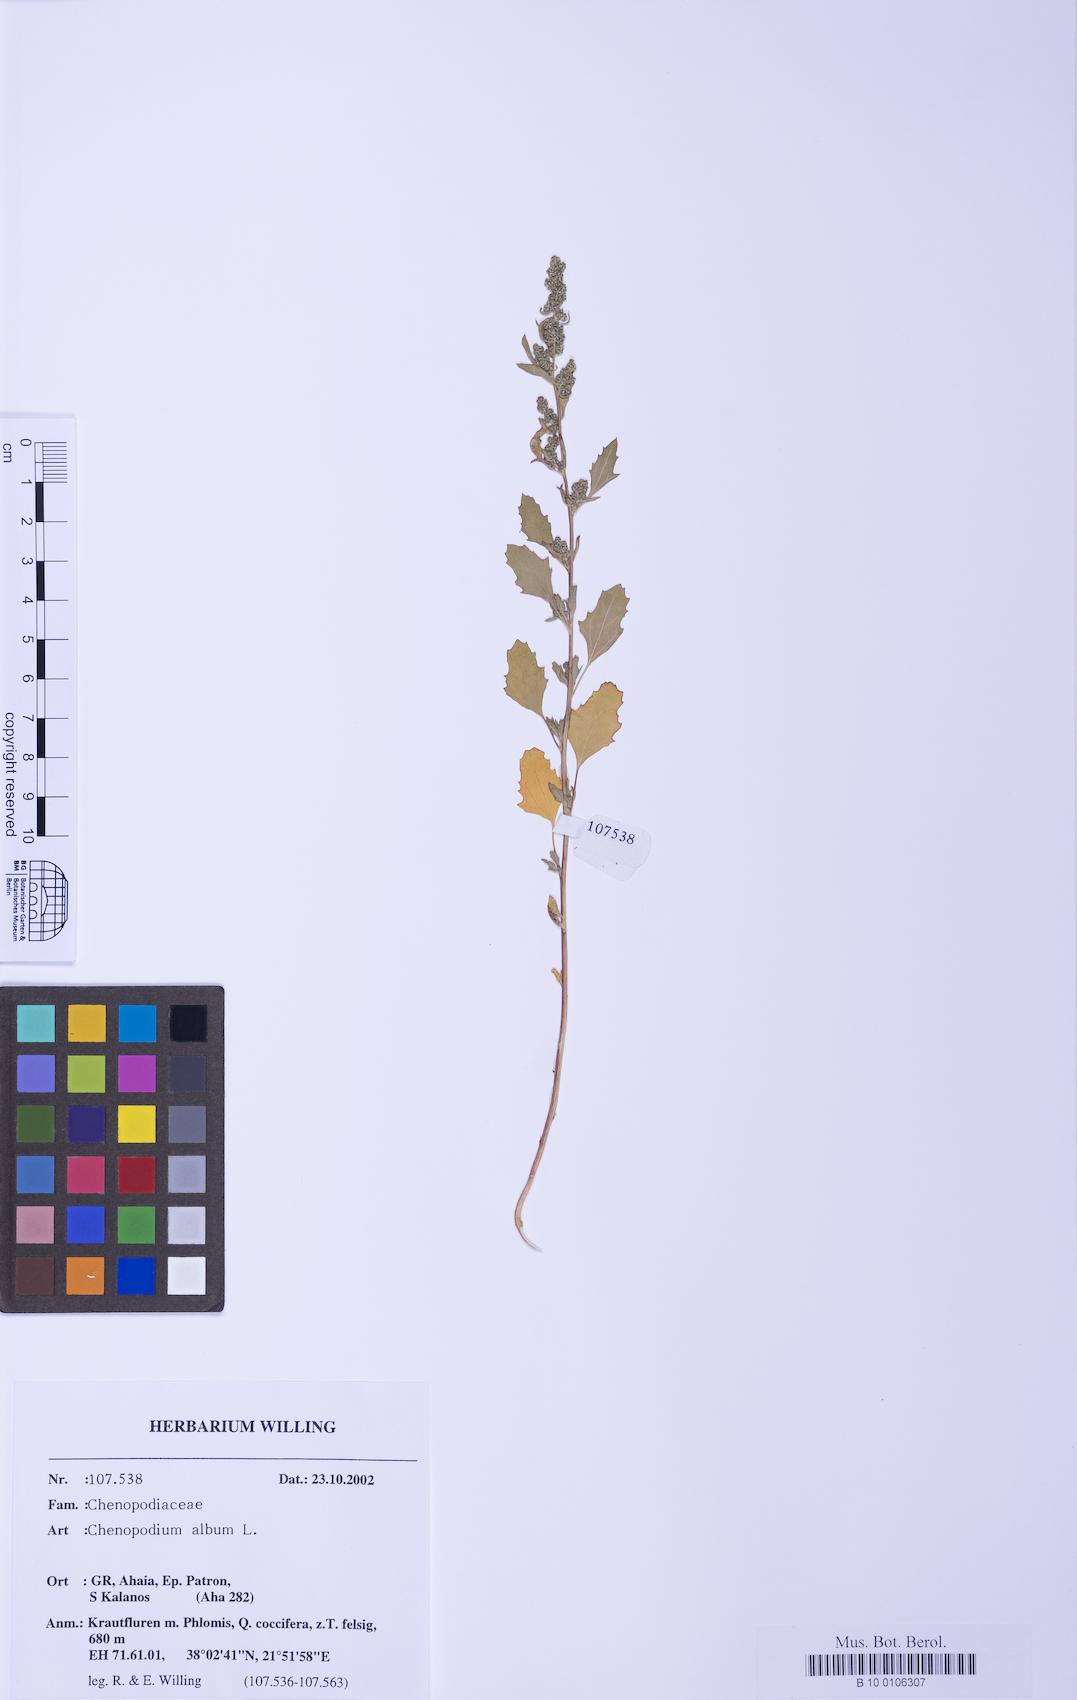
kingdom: Plantae
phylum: Tracheophyta
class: Magnoliopsida
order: Caryophyllales
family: Amaranthaceae
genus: Chenopodium
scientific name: Chenopodium betaceum
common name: Striped goosefoot
